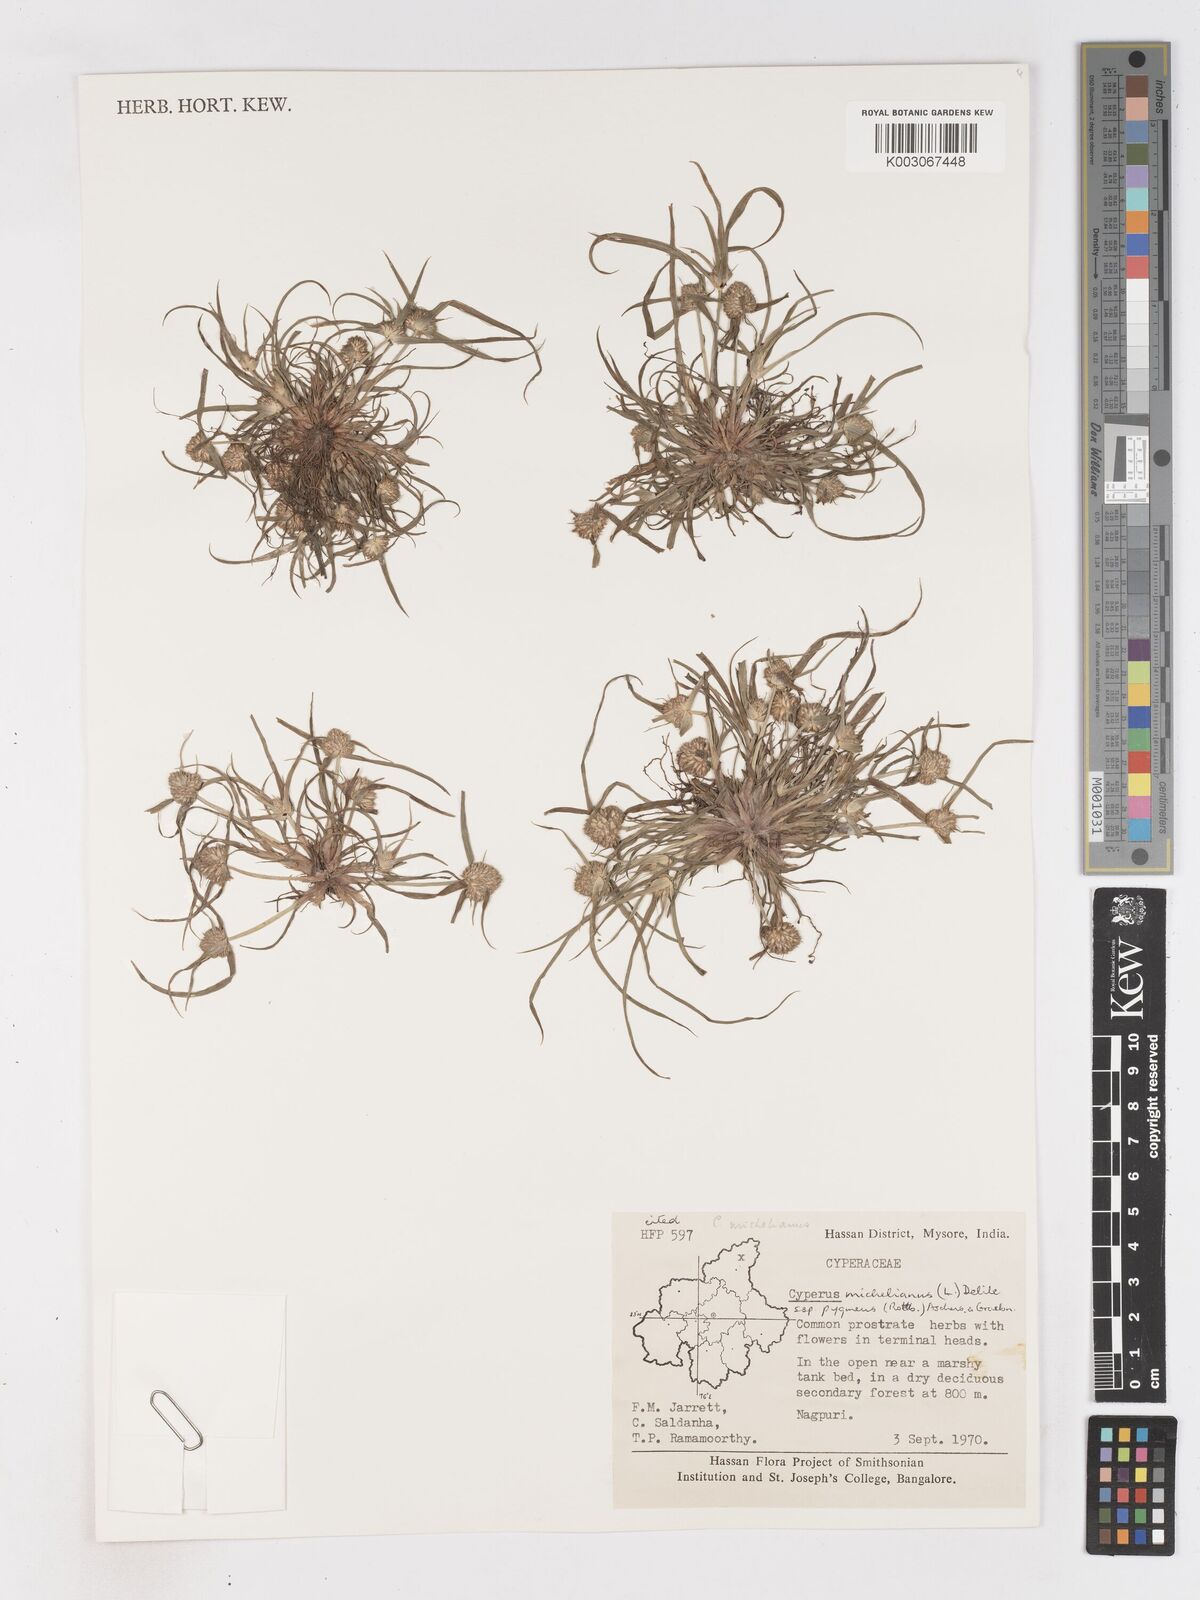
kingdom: Plantae
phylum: Tracheophyta
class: Liliopsida
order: Poales
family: Cyperaceae
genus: Cyperus
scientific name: Cyperus michelianus
